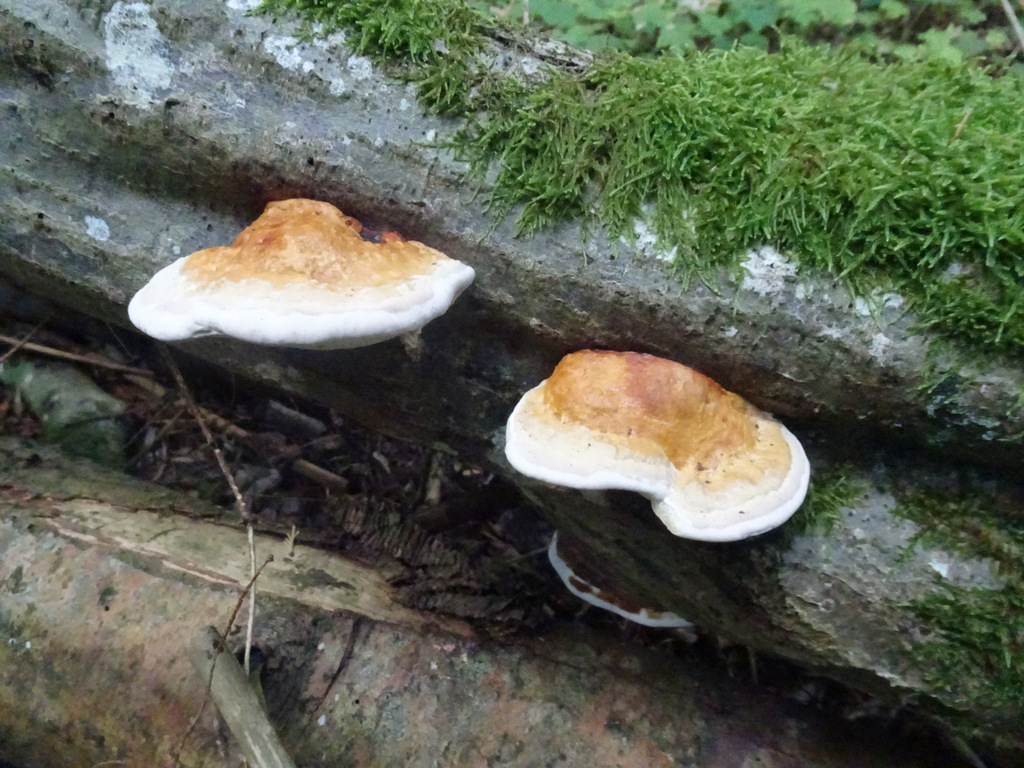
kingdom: Fungi
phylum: Basidiomycota
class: Agaricomycetes
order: Polyporales
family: Fomitopsidaceae
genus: Fomitopsis
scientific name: Fomitopsis pinicola
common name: randbæltet hovporesvamp
